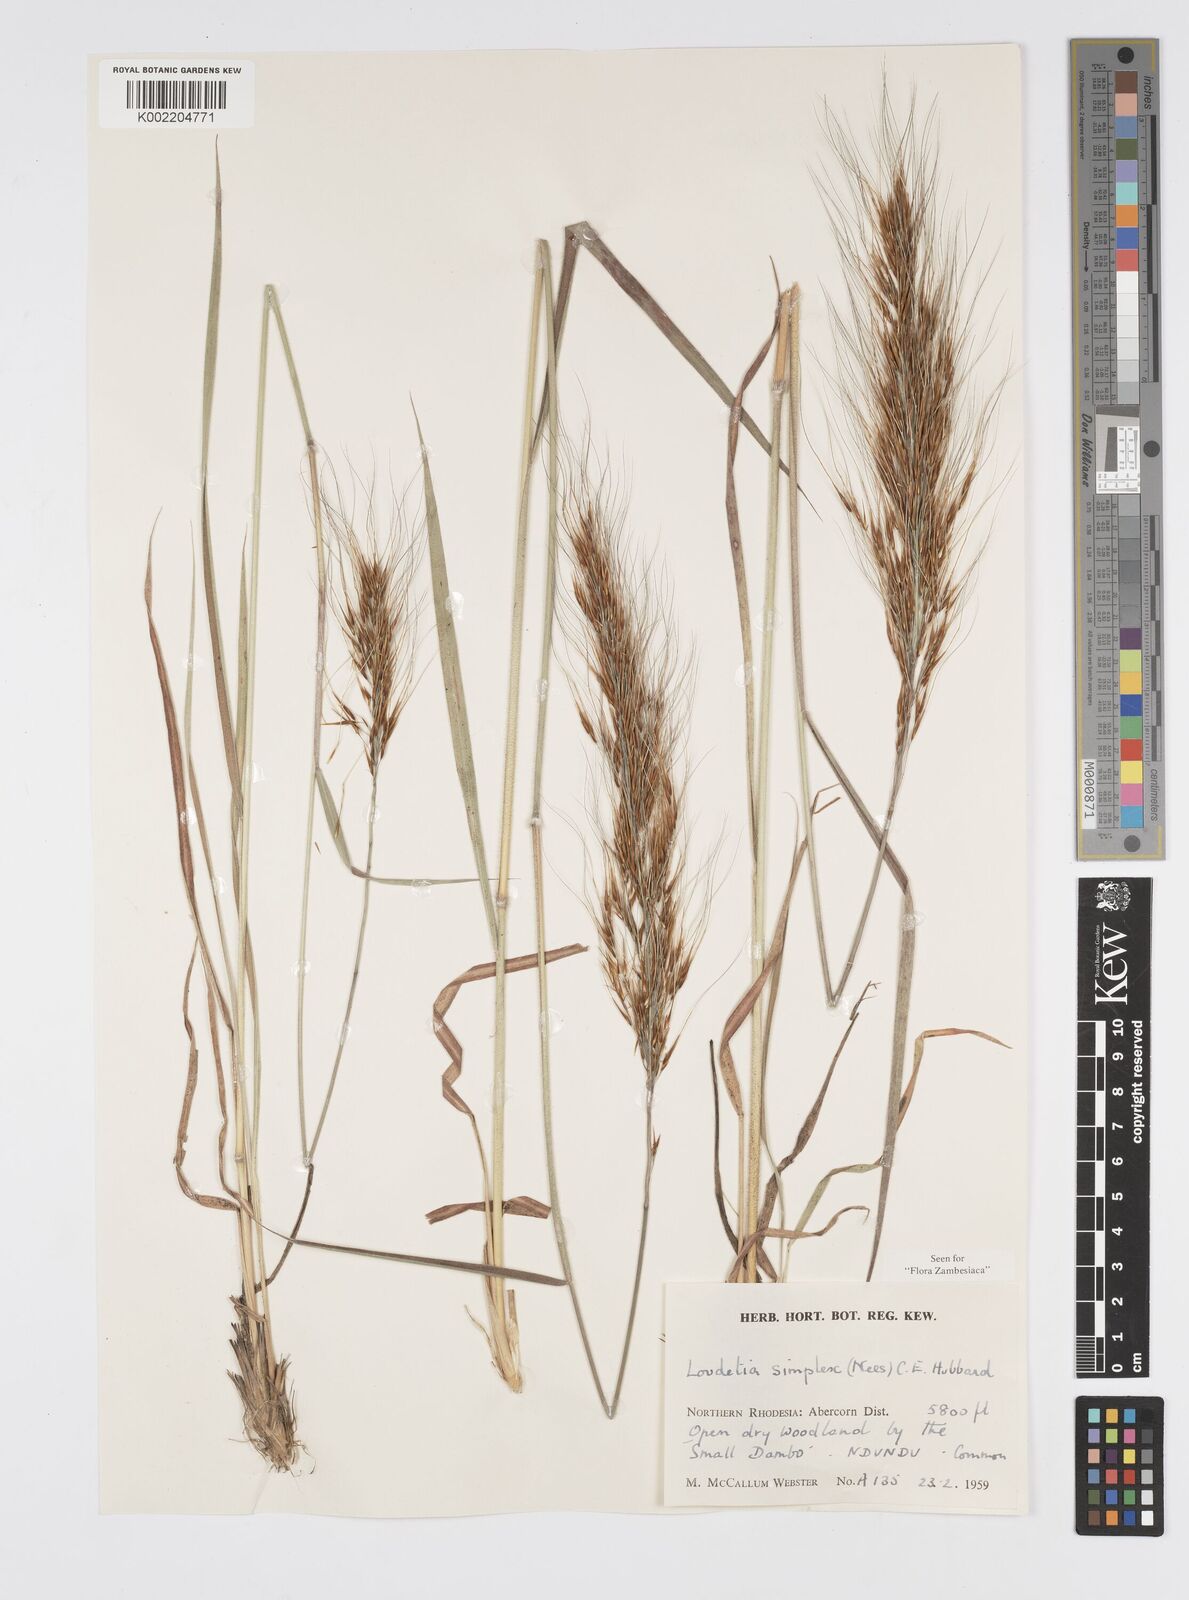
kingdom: Plantae
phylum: Tracheophyta
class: Liliopsida
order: Poales
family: Poaceae
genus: Loudetia
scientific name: Loudetia simplex
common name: Common russet grass
